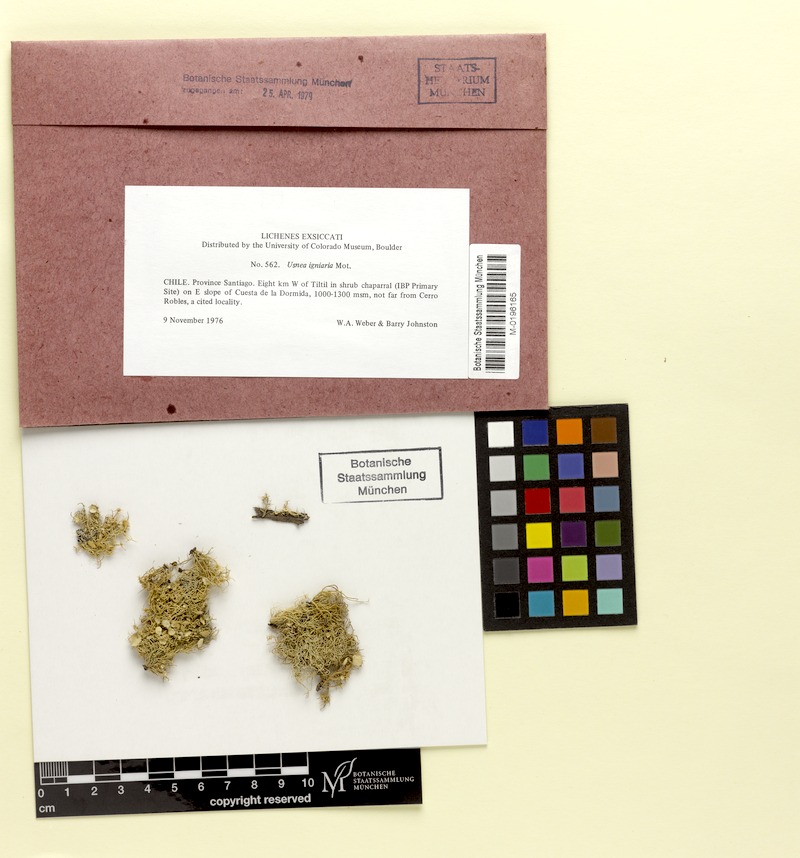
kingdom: Fungi
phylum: Ascomycota
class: Lecanoromycetes
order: Lecanorales
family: Parmeliaceae
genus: Usnea
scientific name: Usnea igniaria
